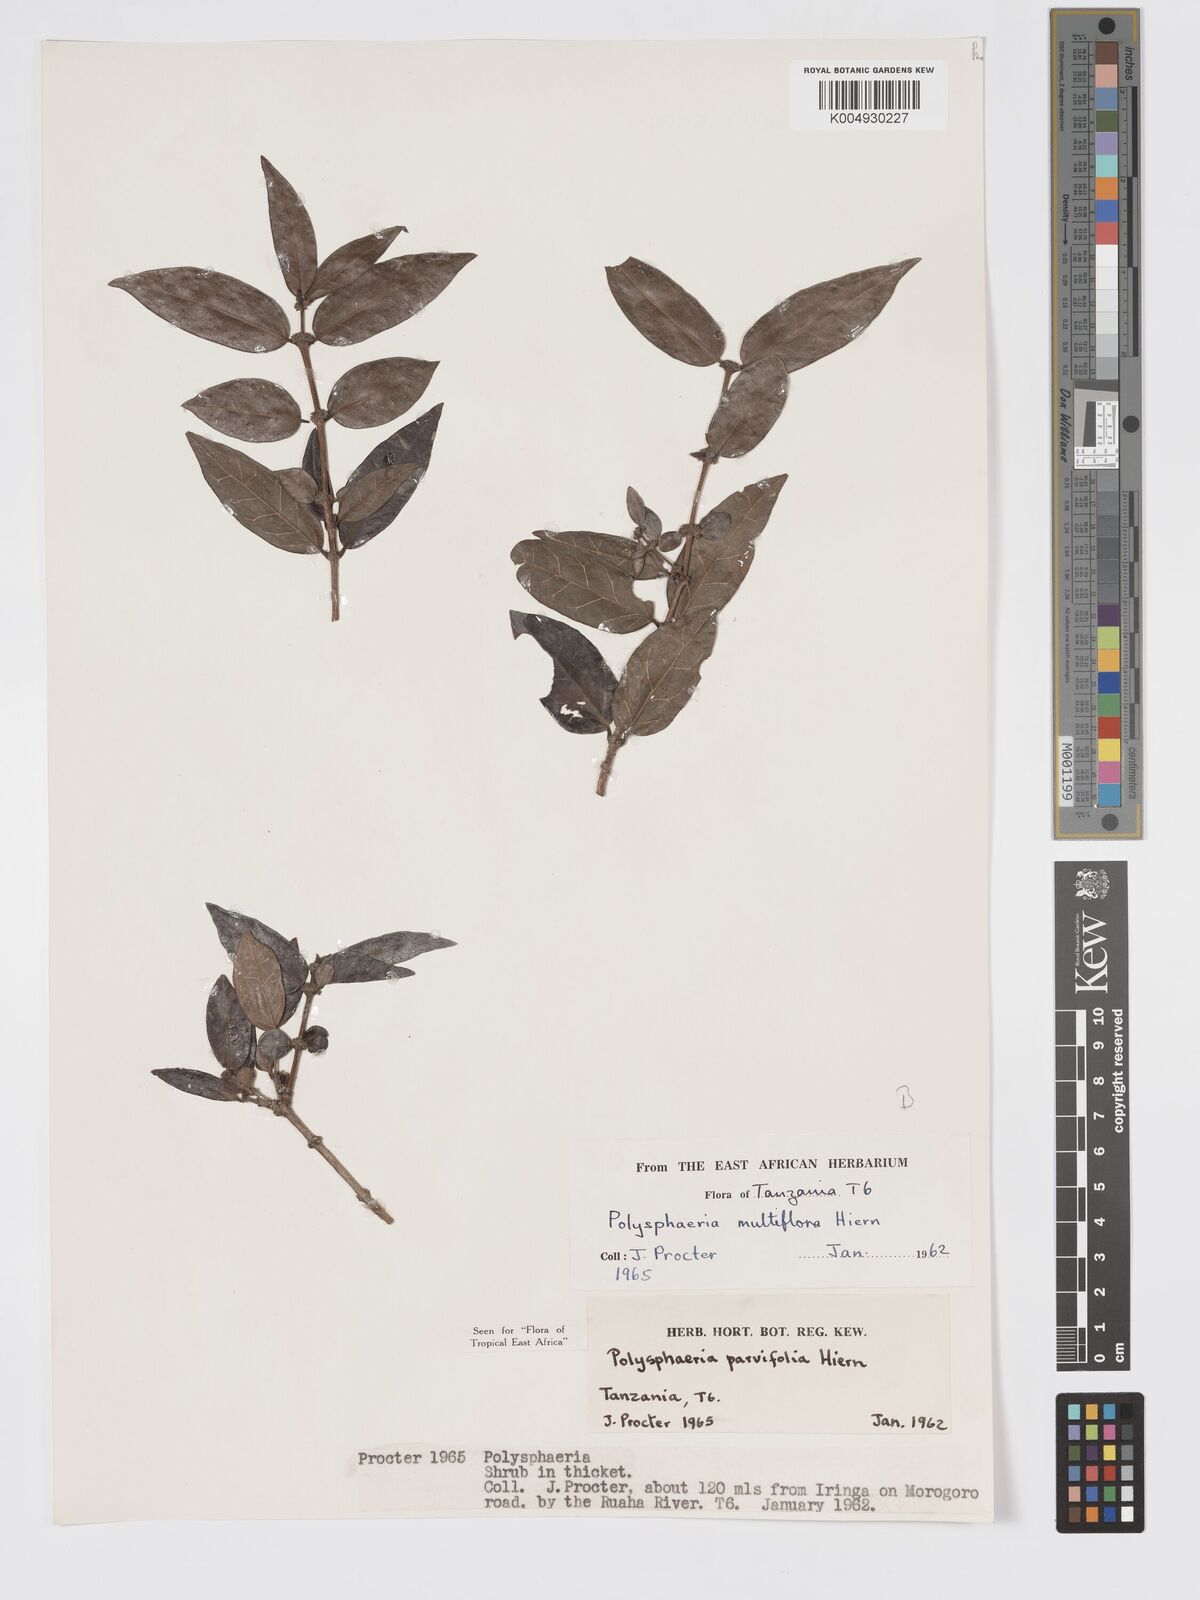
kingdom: Plantae
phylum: Tracheophyta
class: Magnoliopsida
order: Gentianales
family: Rubiaceae
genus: Polysphaeria
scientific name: Polysphaeria parvifolia
